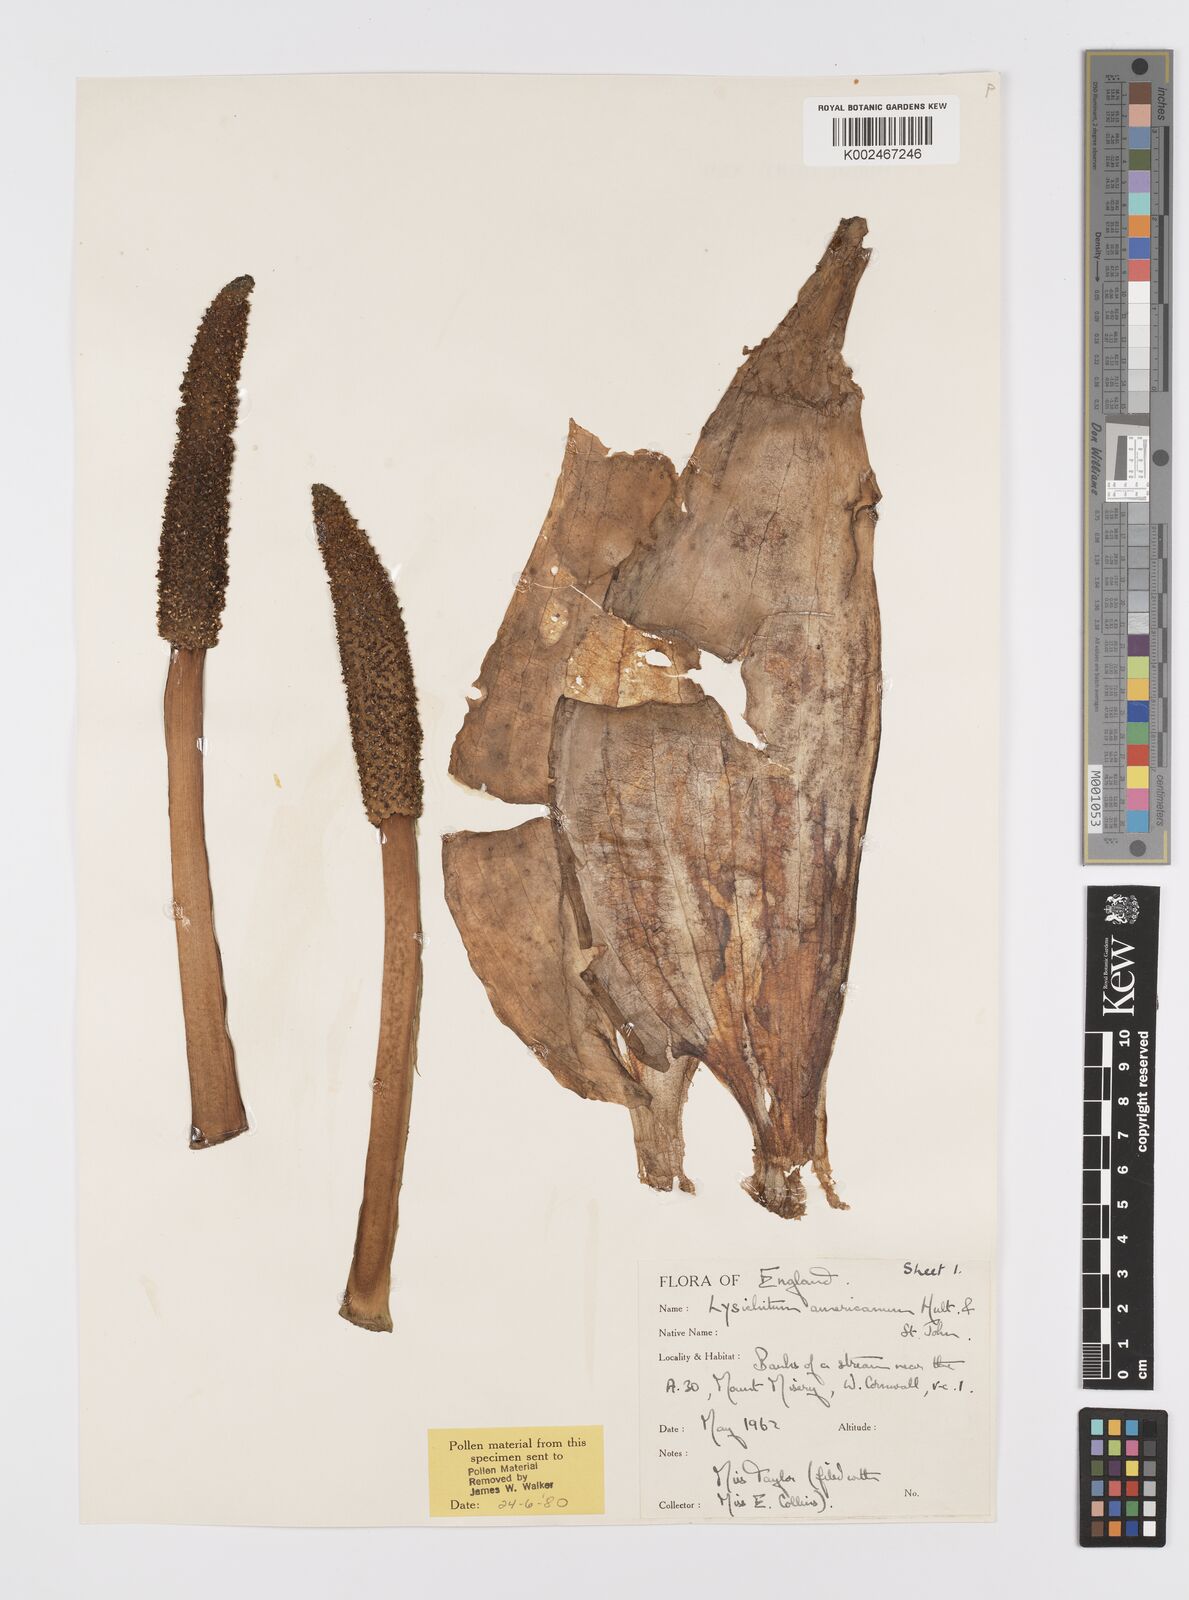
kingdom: Plantae
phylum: Tracheophyta
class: Liliopsida
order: Alismatales
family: Araceae
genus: Lysichiton
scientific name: Lysichiton americanus
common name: American skunk cabbage
